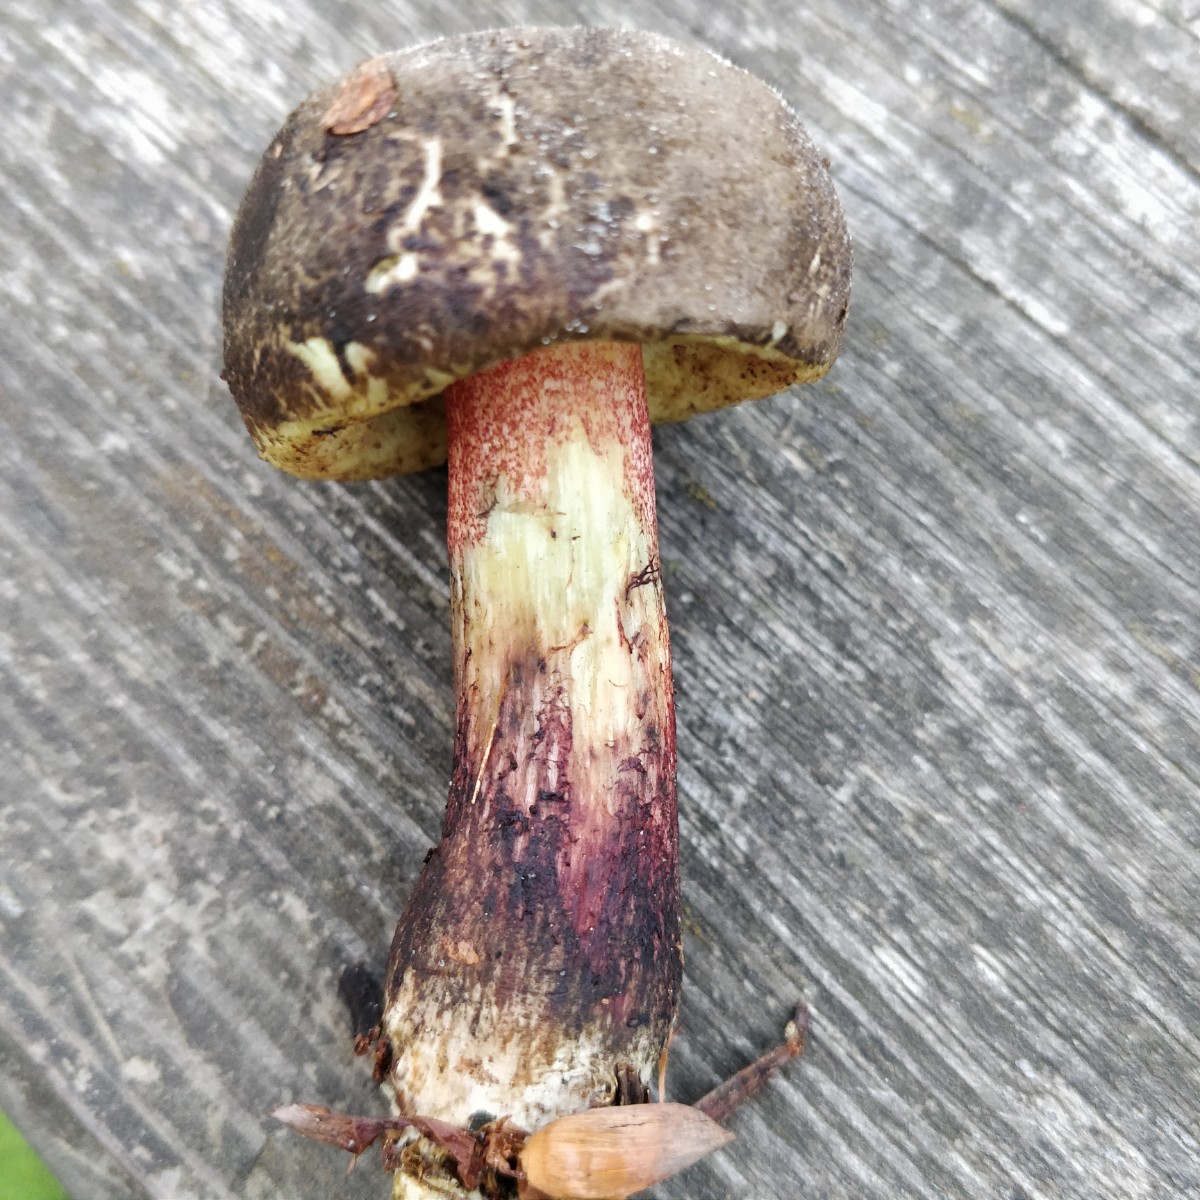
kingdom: Fungi
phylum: Basidiomycota
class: Agaricomycetes
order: Boletales
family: Boletaceae
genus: Xerocomellus
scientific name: Xerocomellus chrysenteron
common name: rødsprukken rørhat
